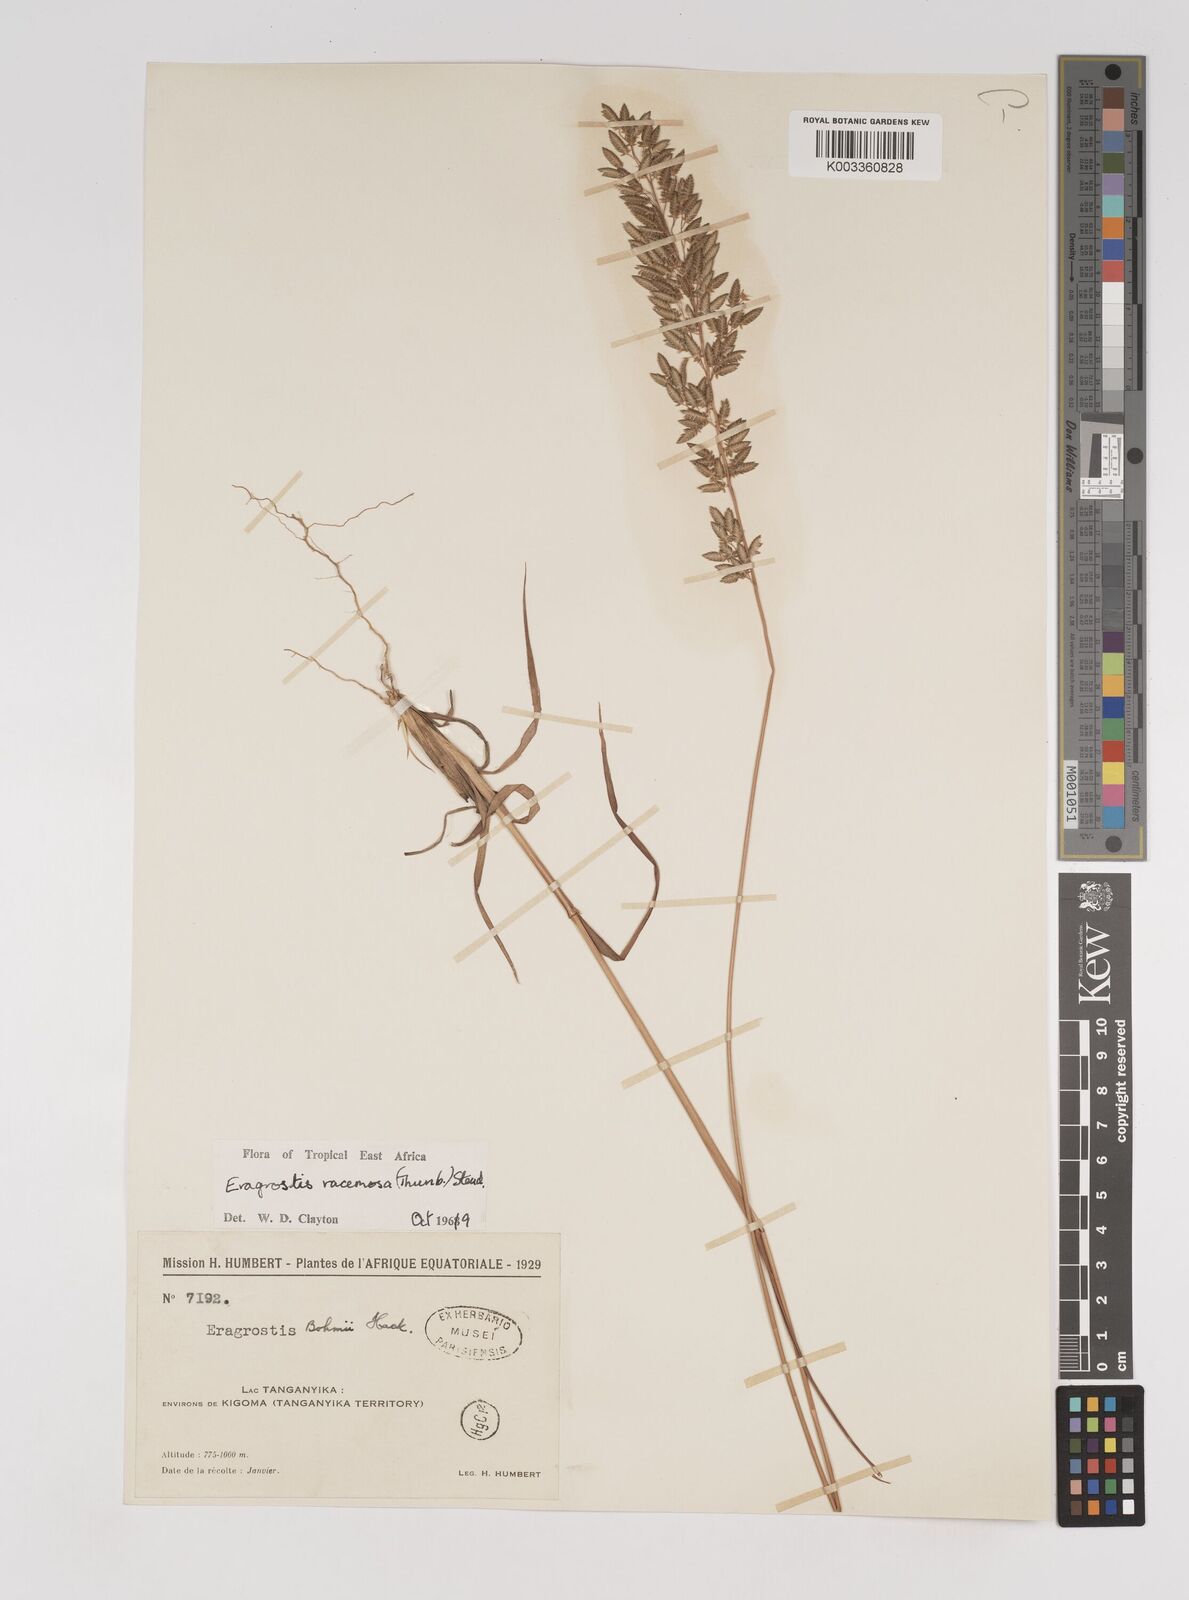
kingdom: Plantae
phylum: Tracheophyta
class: Liliopsida
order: Poales
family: Poaceae
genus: Eragrostis
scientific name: Eragrostis racemosa
